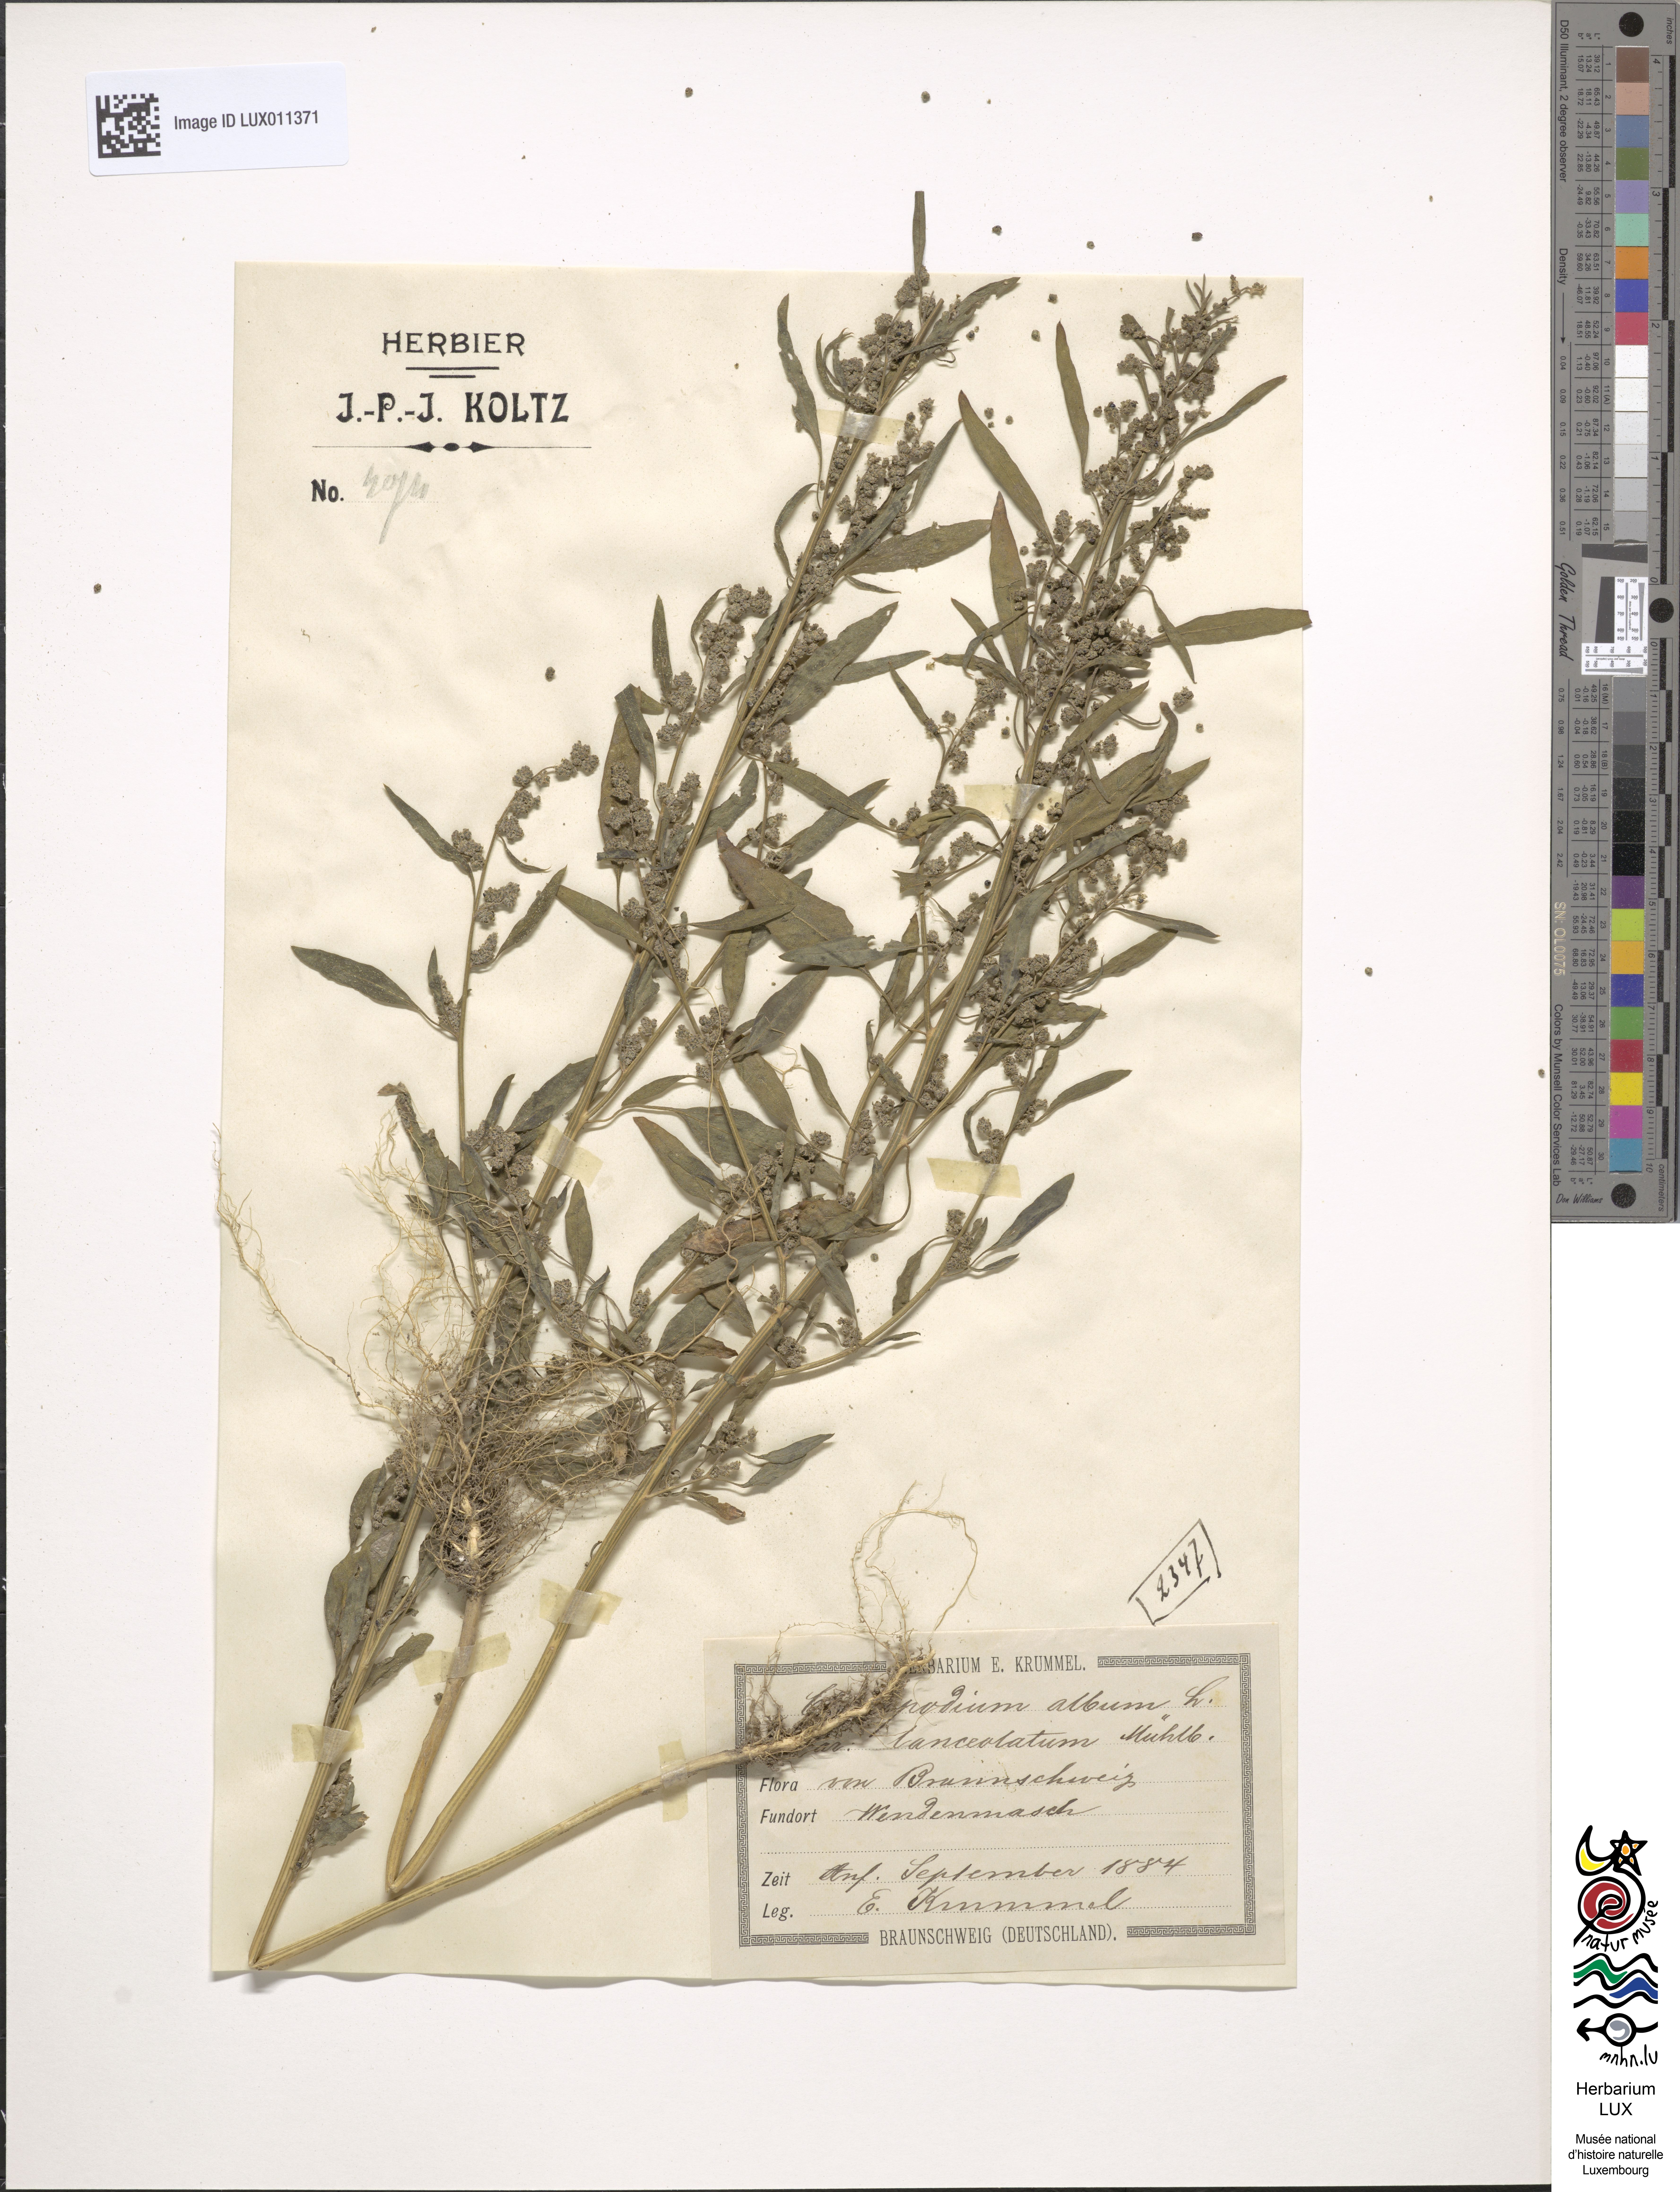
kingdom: Plantae
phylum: Tracheophyta
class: Magnoliopsida
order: Caryophyllales
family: Amaranthaceae
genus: Chenopodium
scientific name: Chenopodium album
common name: Fat-hen
